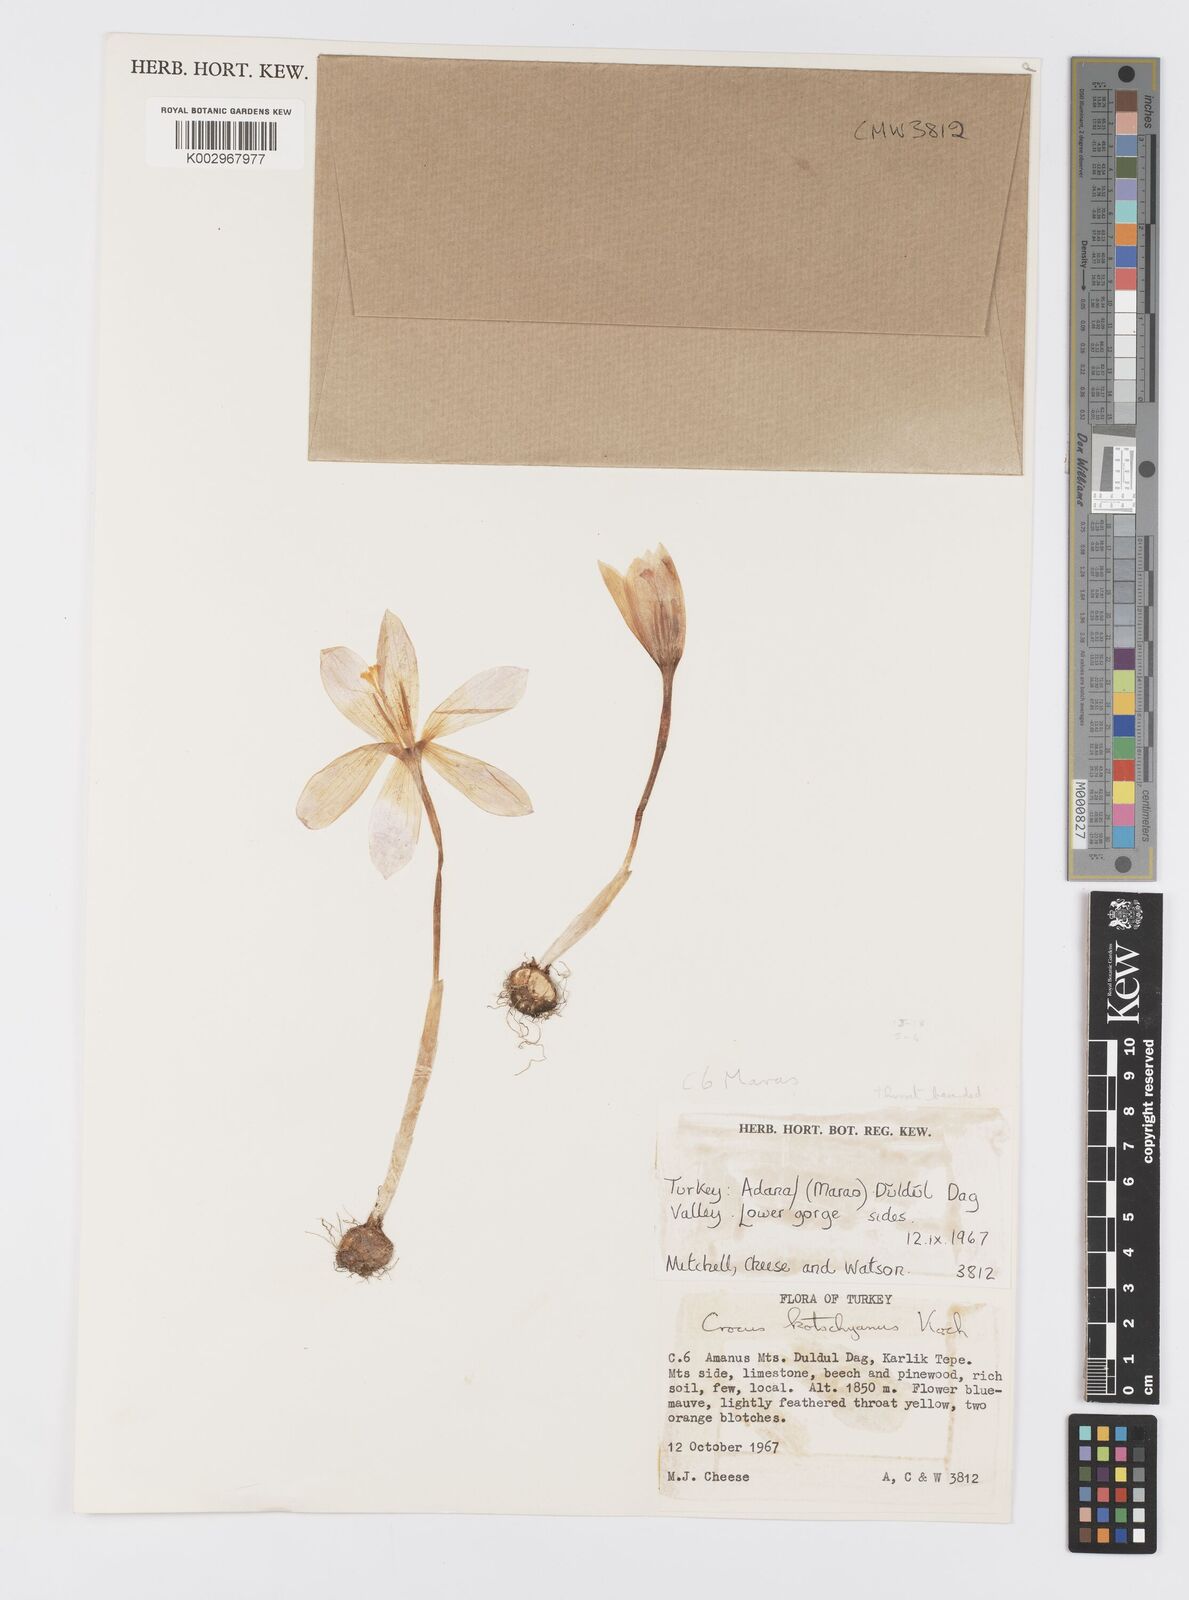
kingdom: Plantae
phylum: Tracheophyta
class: Liliopsida
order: Asparagales
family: Iridaceae
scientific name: Iridaceae
